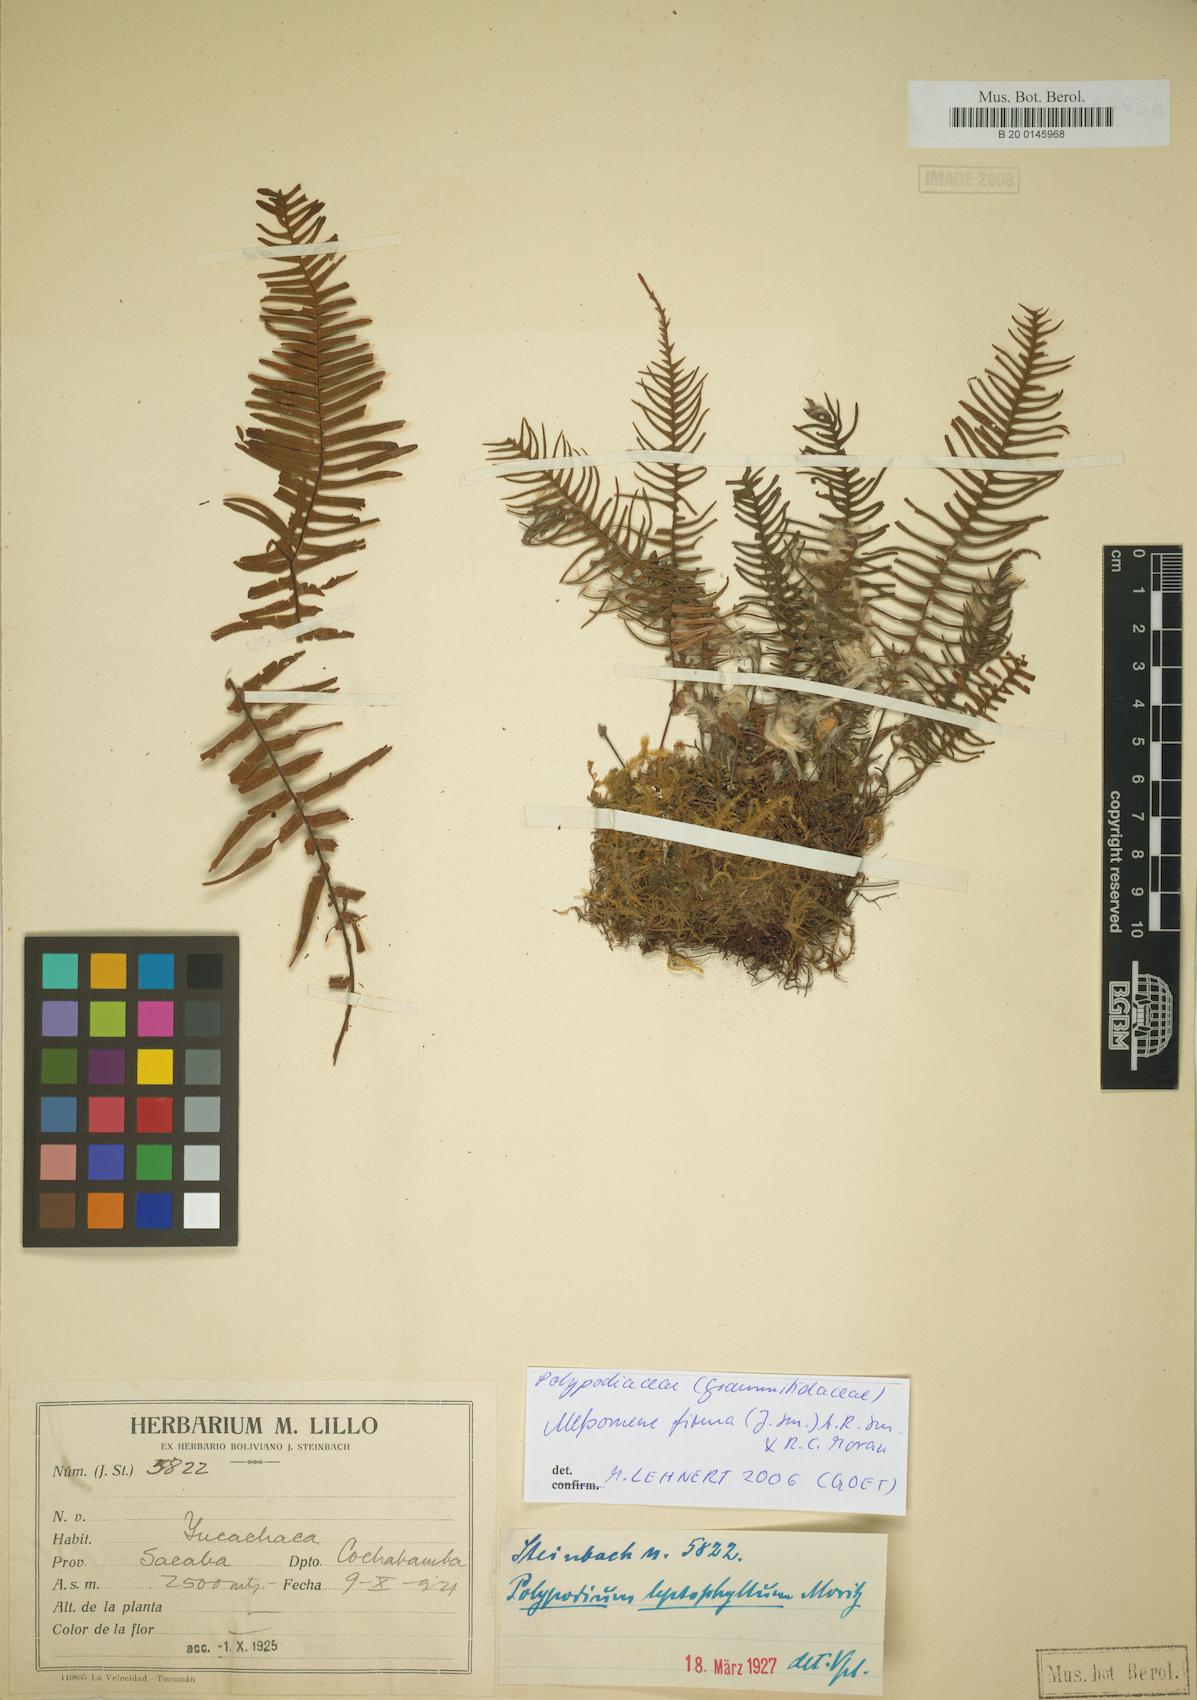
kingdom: Plantae
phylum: Tracheophyta
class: Polypodiopsida
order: Polypodiales
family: Polypodiaceae
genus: Melpomene
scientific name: Melpomene firma
